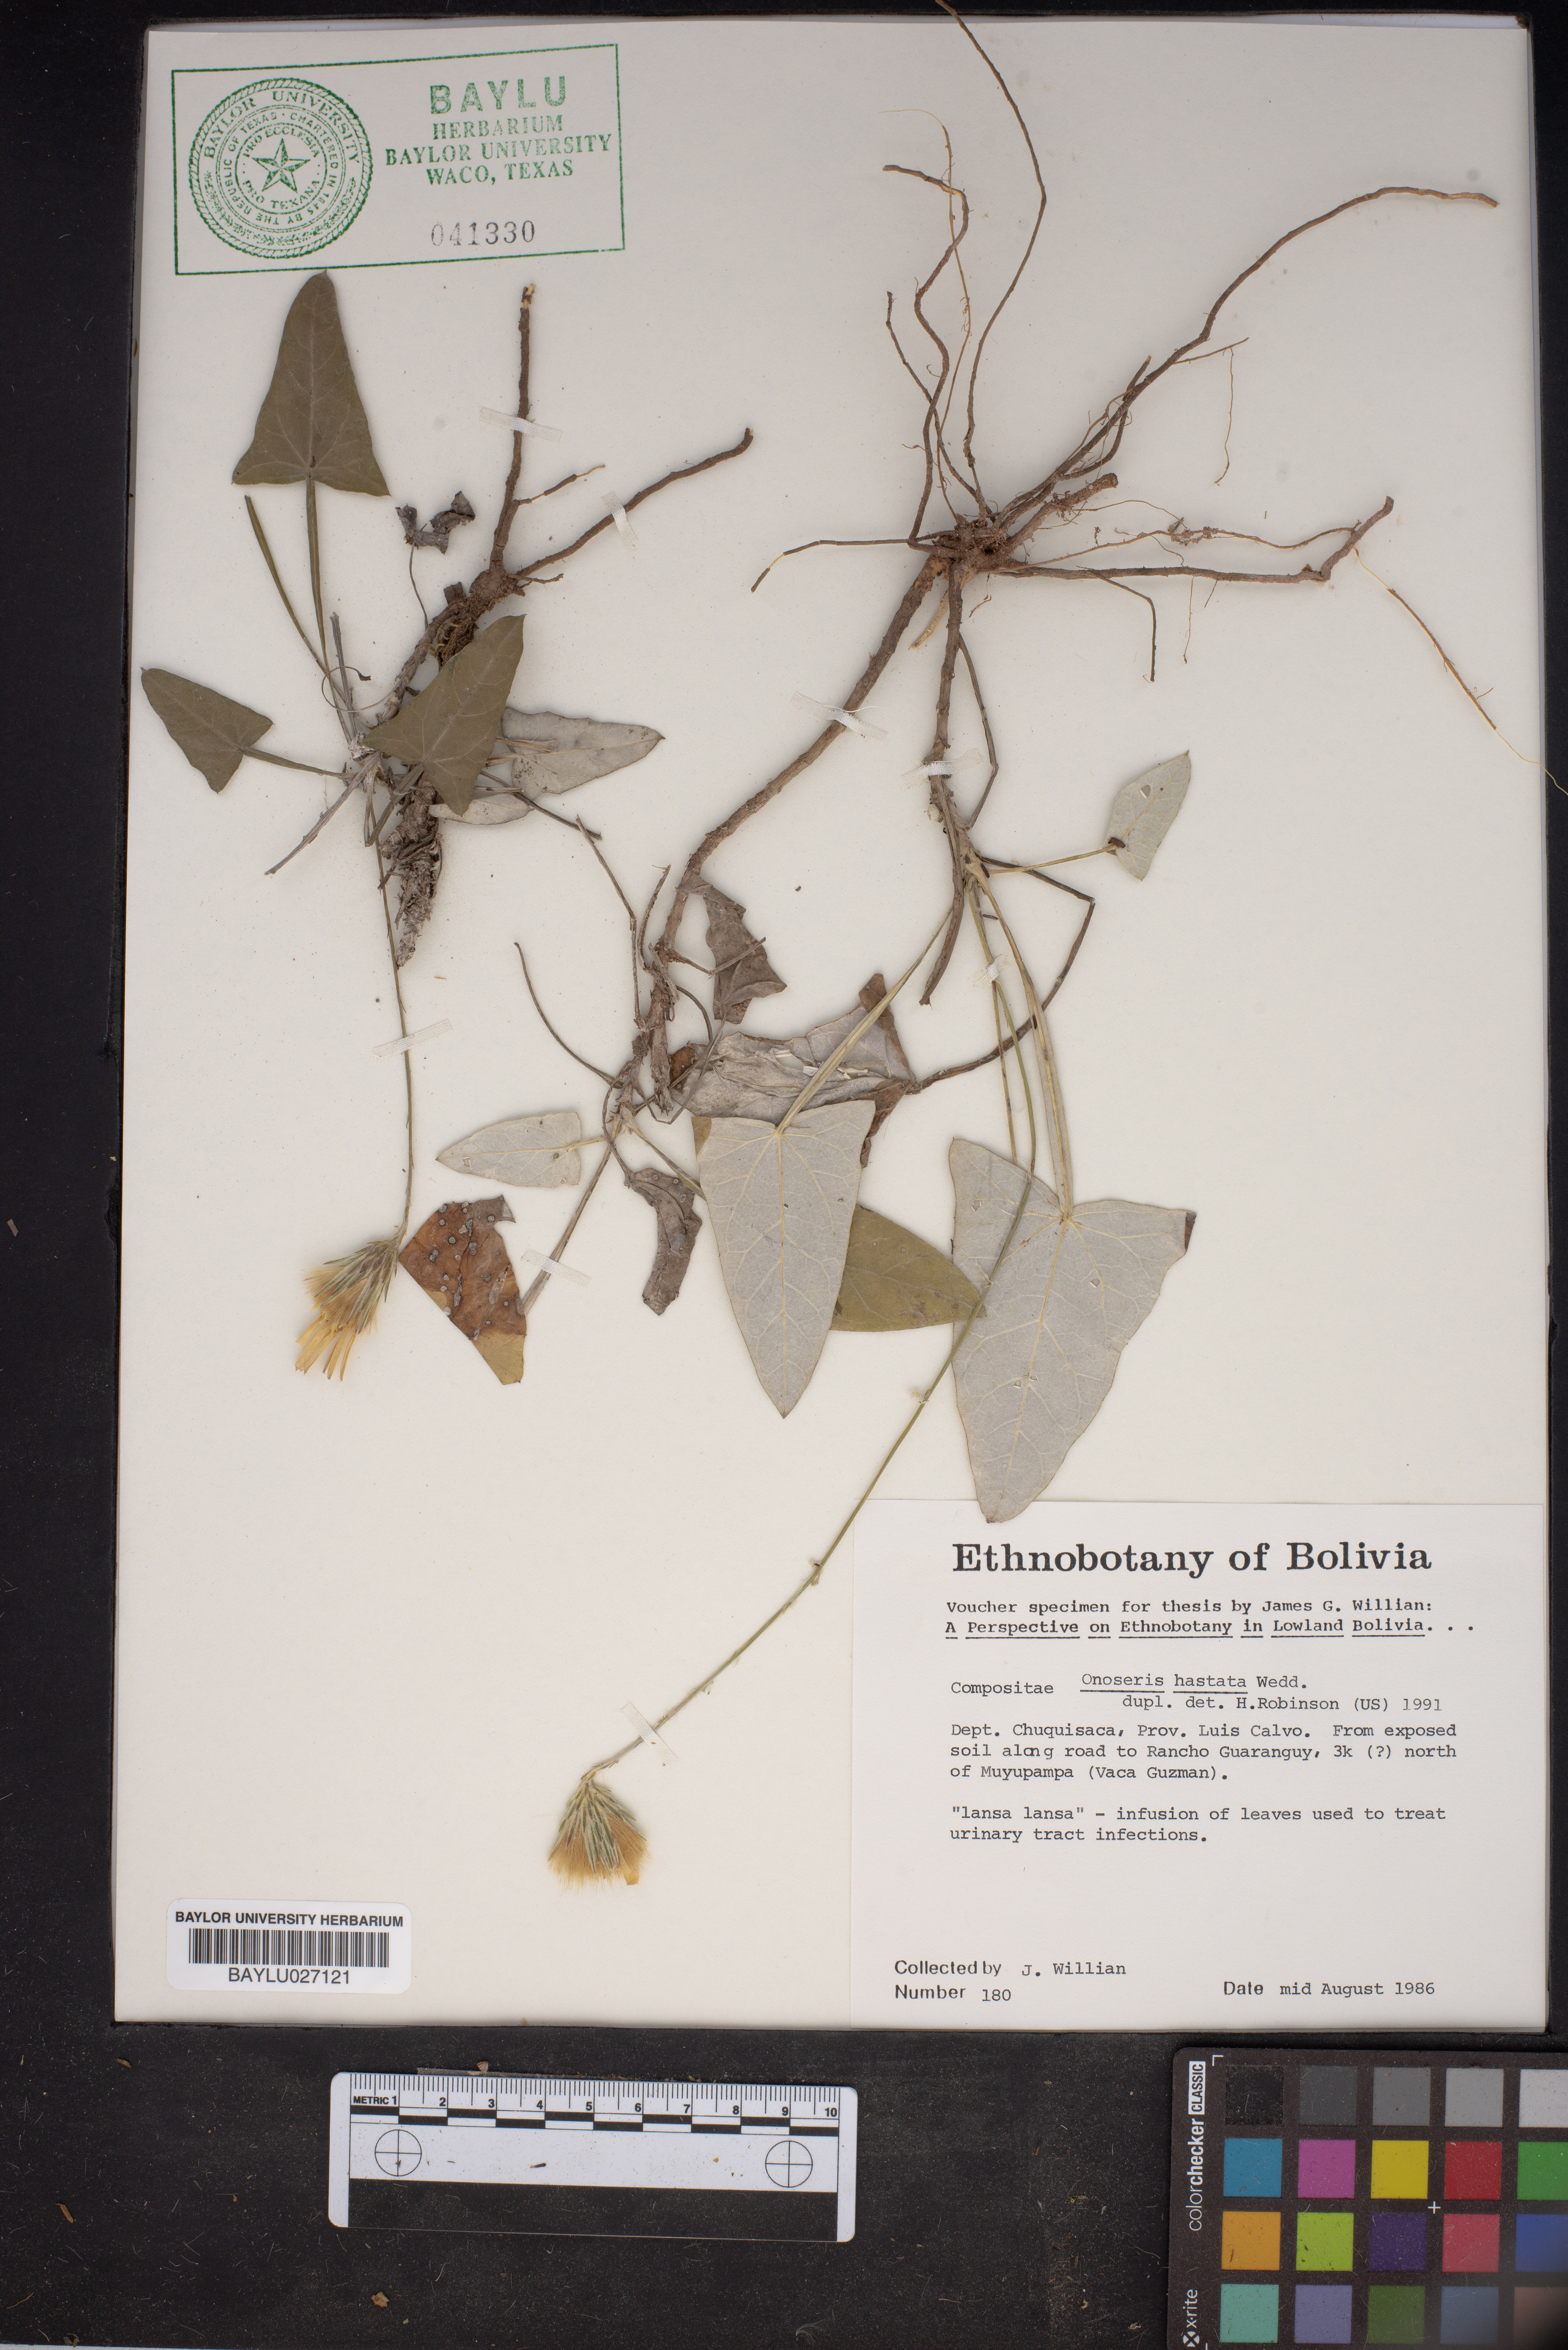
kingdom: Plantae
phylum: Tracheophyta
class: Magnoliopsida
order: Asterales
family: Asteraceae
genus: Onoseris
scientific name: Onoseris hastata
